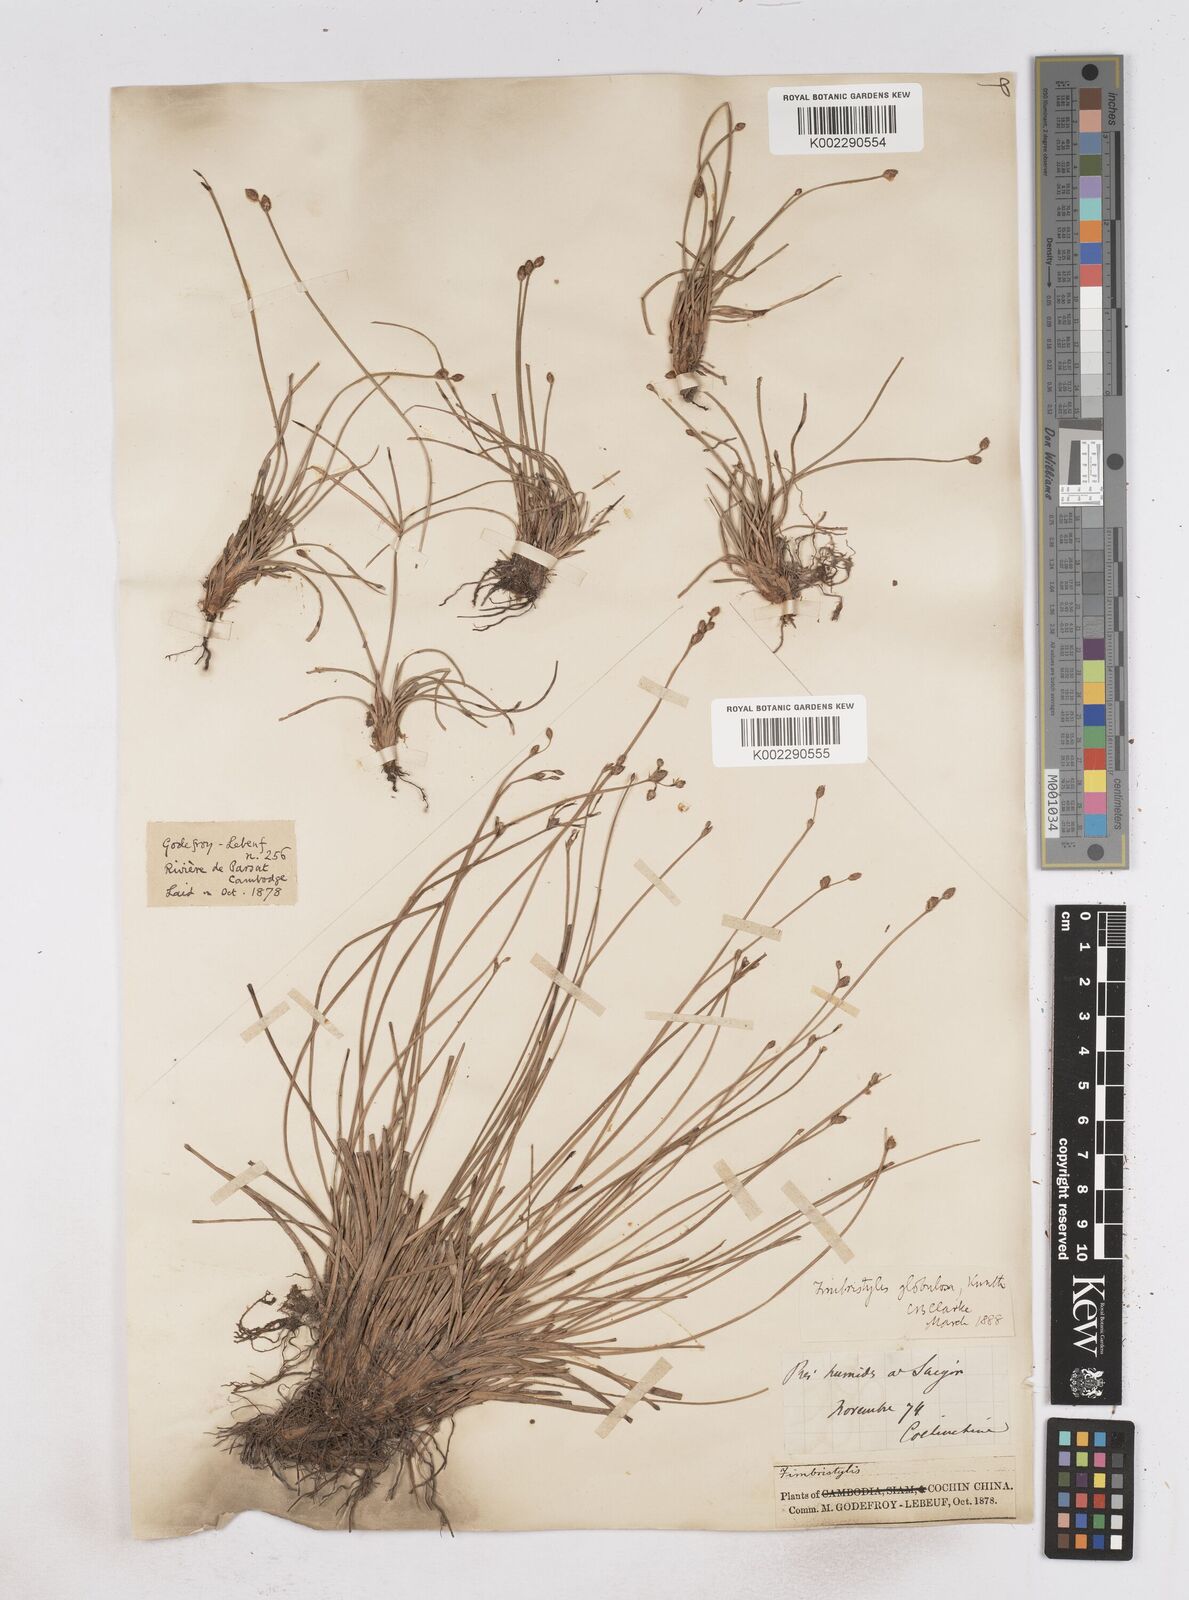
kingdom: Plantae
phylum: Tracheophyta
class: Liliopsida
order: Poales
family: Cyperaceae
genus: Fimbristylis
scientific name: Fimbristylis umbellaris
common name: Globular fimbristylis
